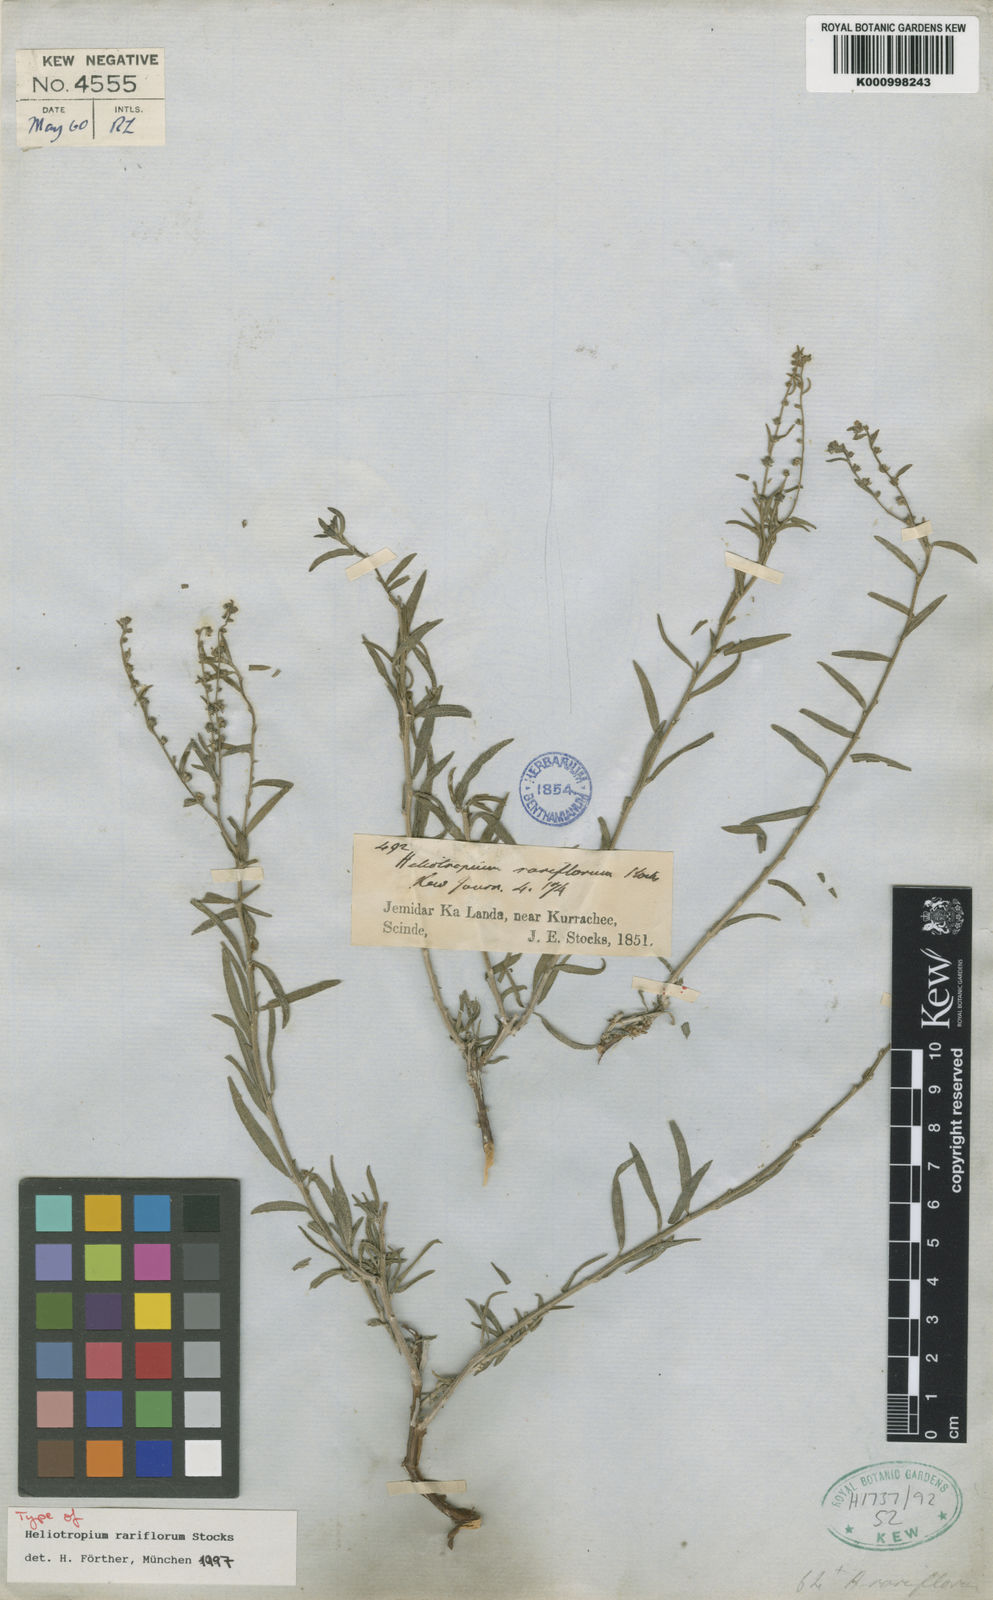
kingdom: Plantae
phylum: Tracheophyta
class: Magnoliopsida
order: Boraginales
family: Heliotropiaceae
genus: Euploca
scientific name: Euploca rariflora
